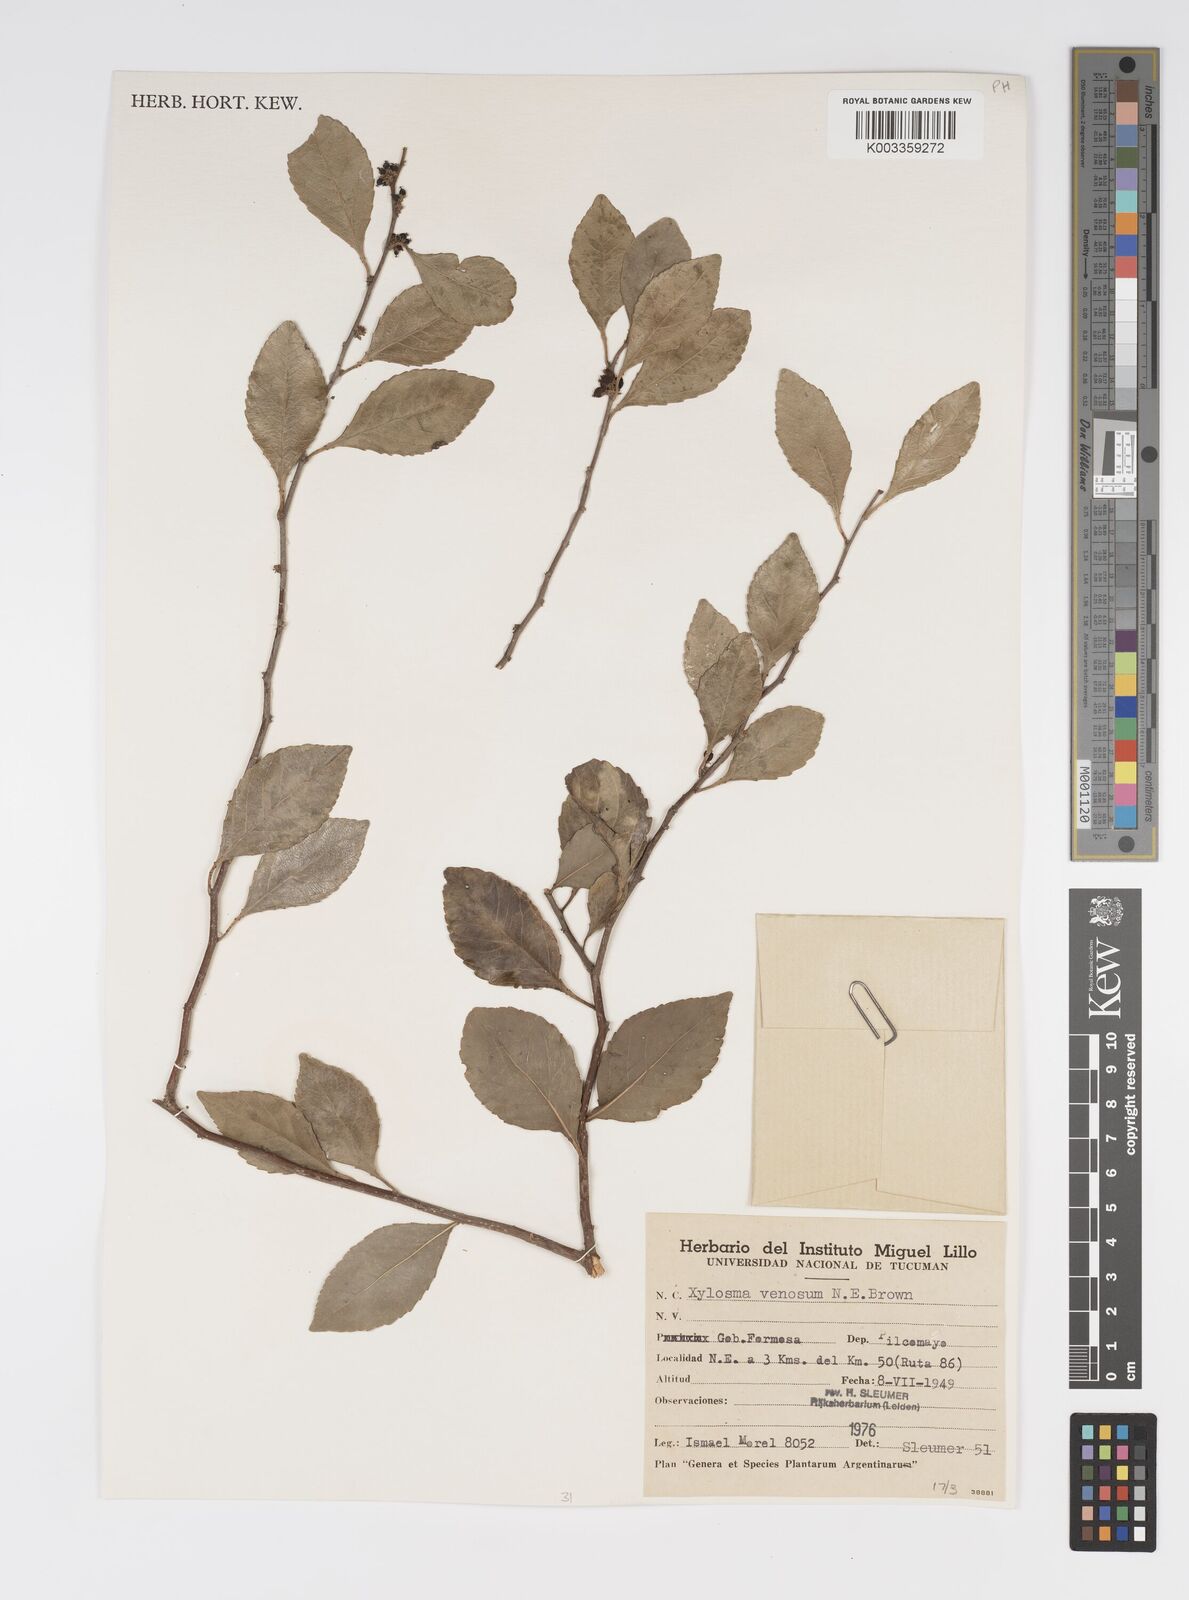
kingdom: Plantae
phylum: Tracheophyta
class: Magnoliopsida
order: Malpighiales
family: Salicaceae
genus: Xylosma
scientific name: Xylosma venosa
